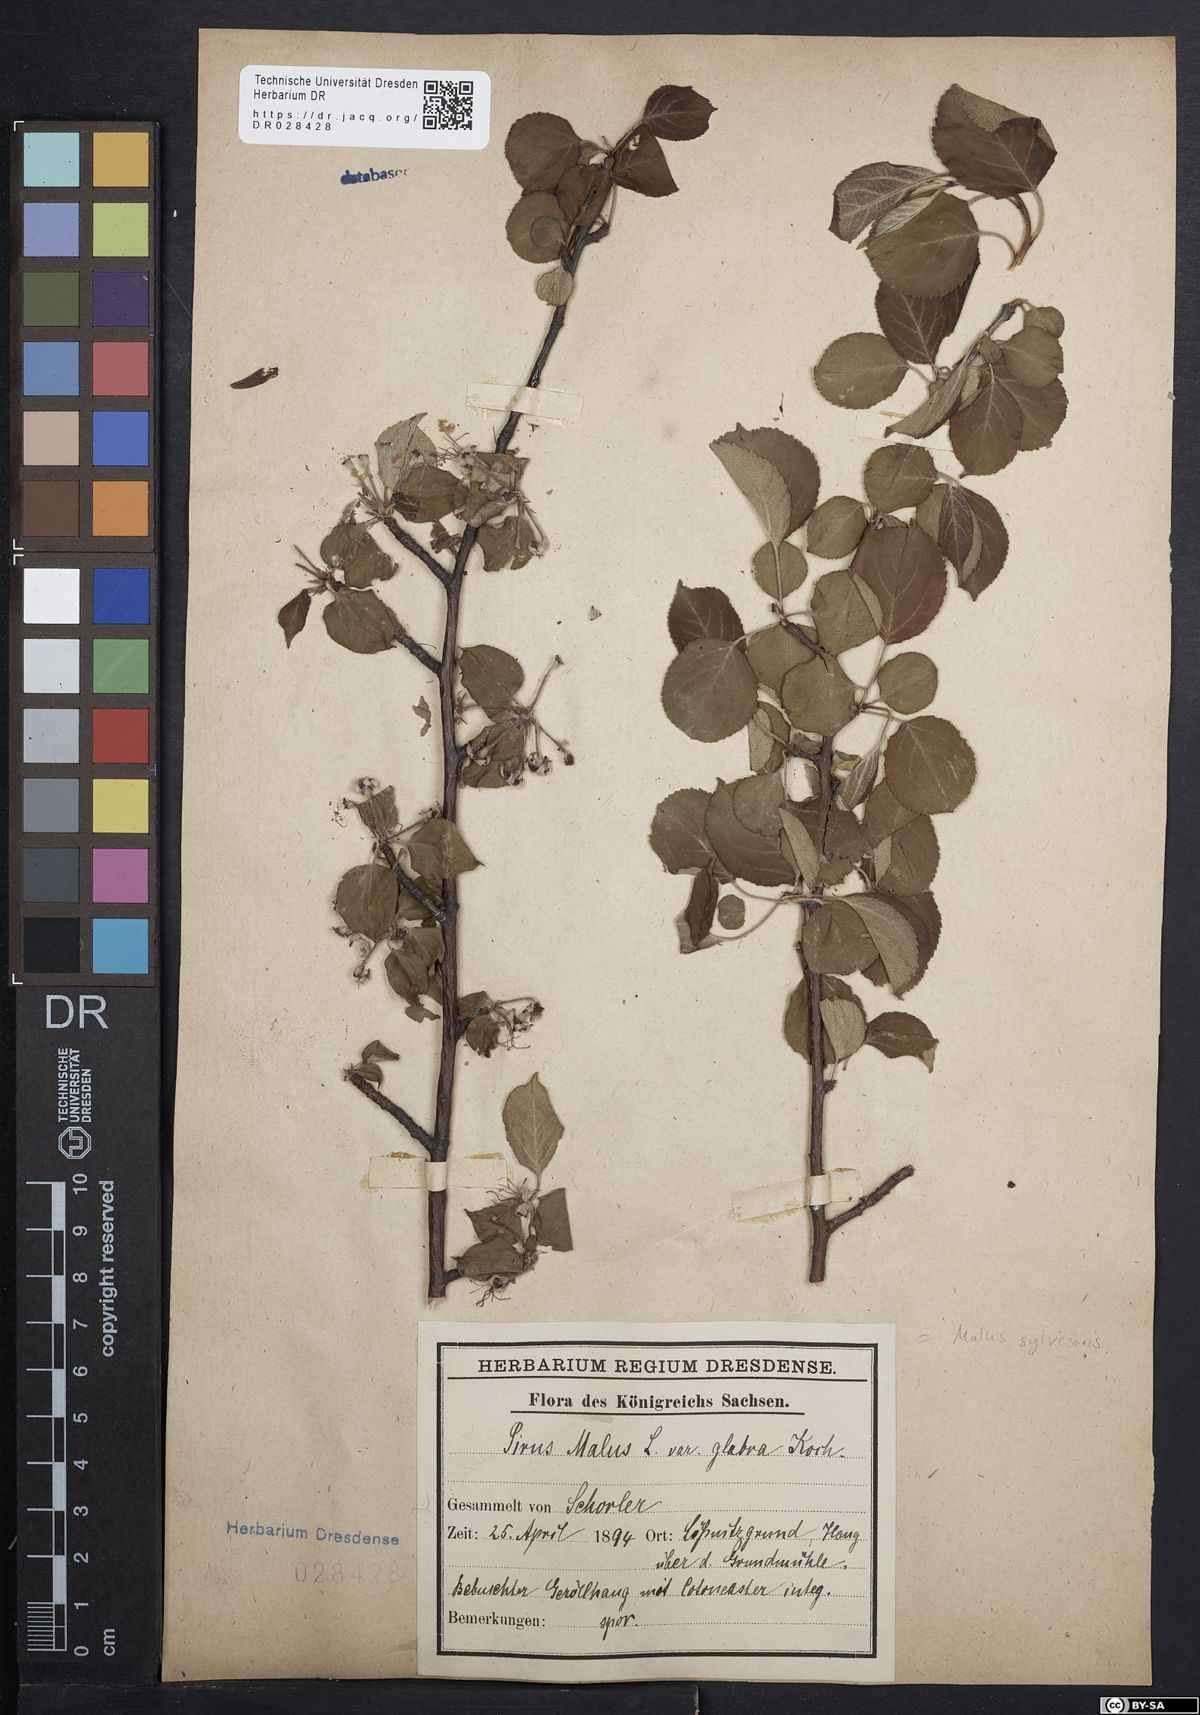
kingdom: Plantae
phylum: Tracheophyta
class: Magnoliopsida
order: Rosales
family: Rosaceae
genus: Malus
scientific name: Malus sylvestris
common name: Crab apple
